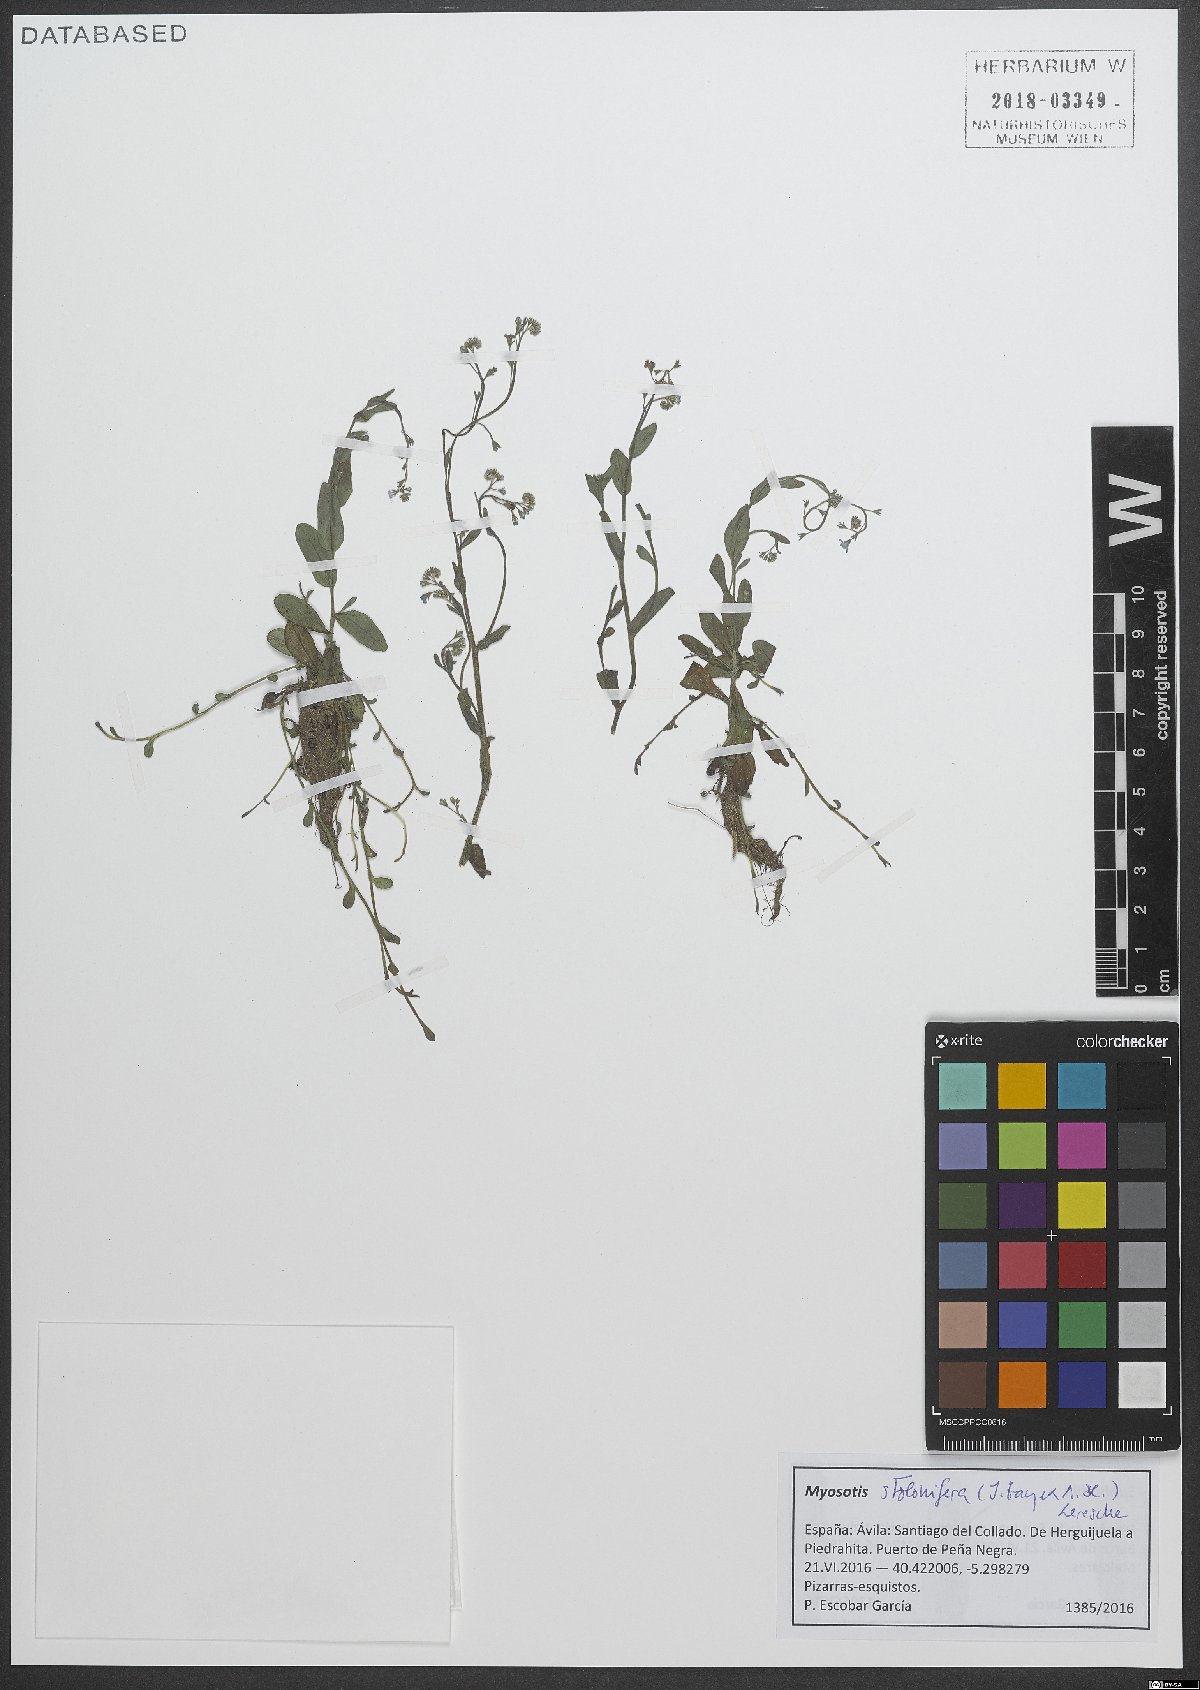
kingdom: Plantae
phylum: Tracheophyta
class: Magnoliopsida
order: Boraginales
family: Boraginaceae
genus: Myosotis
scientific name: Myosotis stolonifera
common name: Pale forget-me-not
